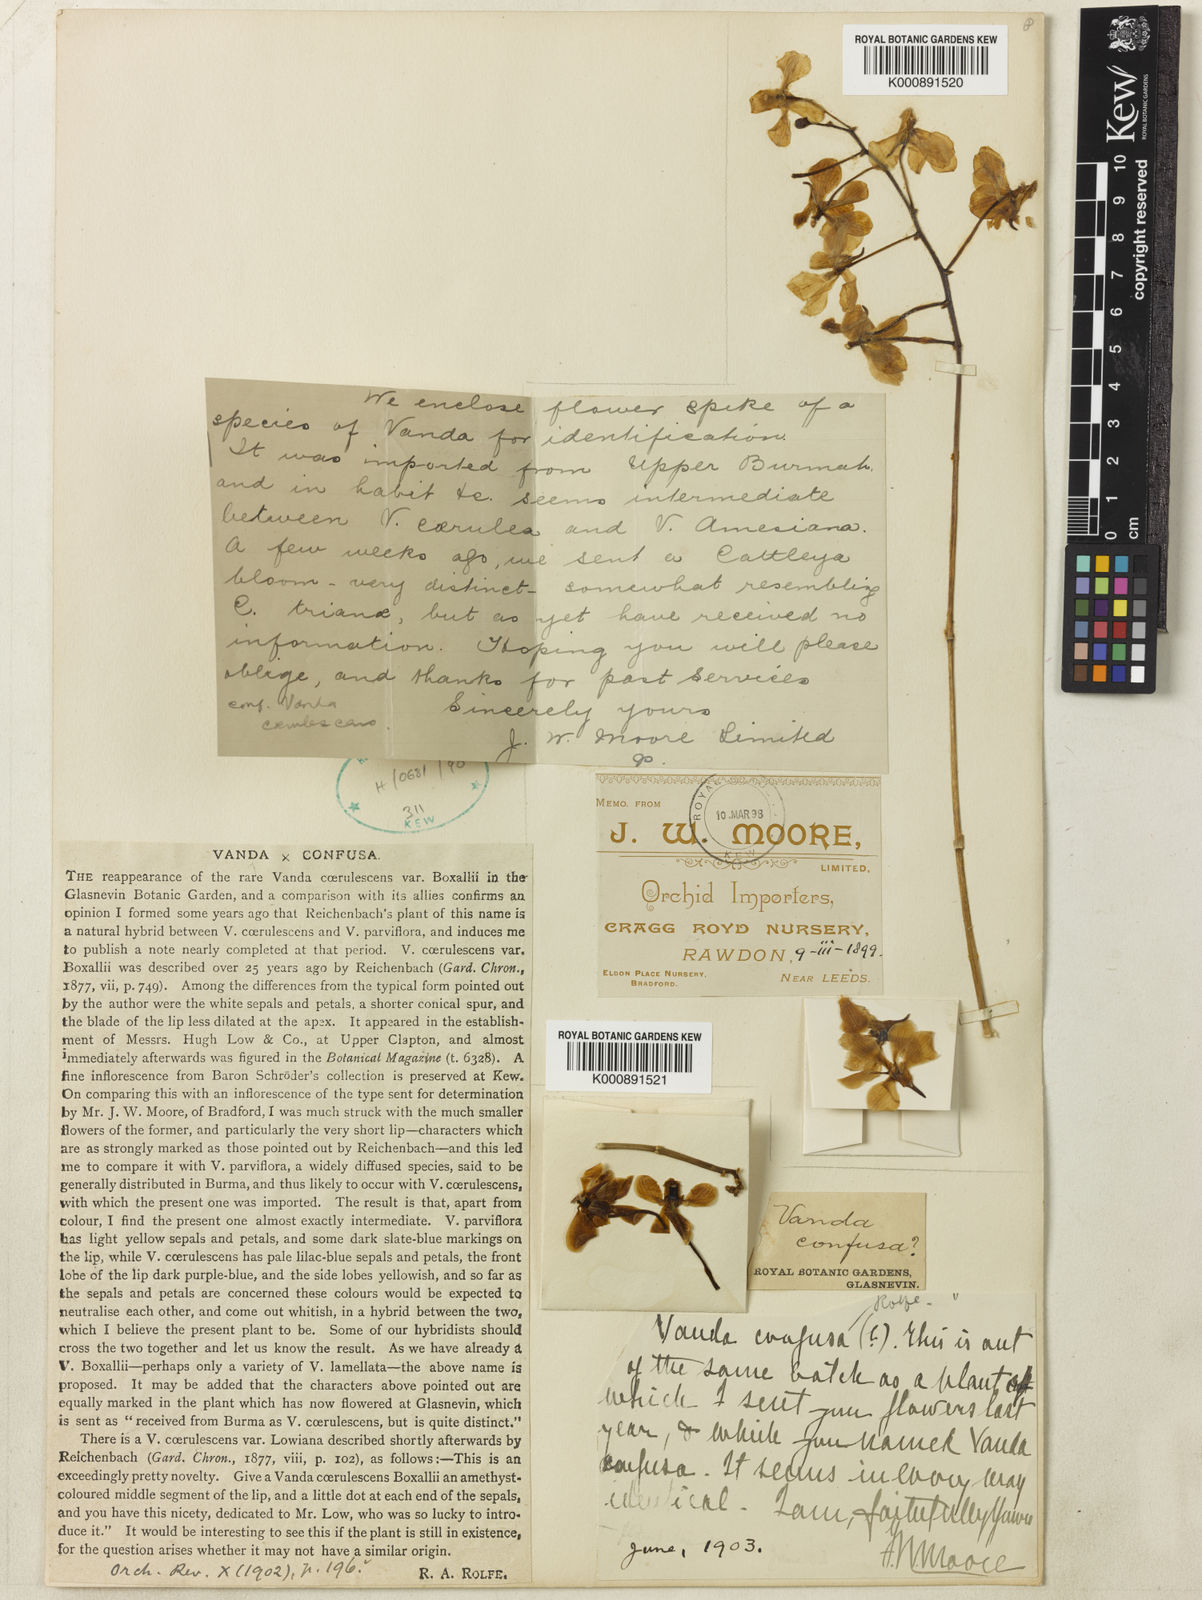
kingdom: Plantae
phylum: Tracheophyta
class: Liliopsida
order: Asparagales
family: Orchidaceae
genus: Vanda
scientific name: Vanda confusa
